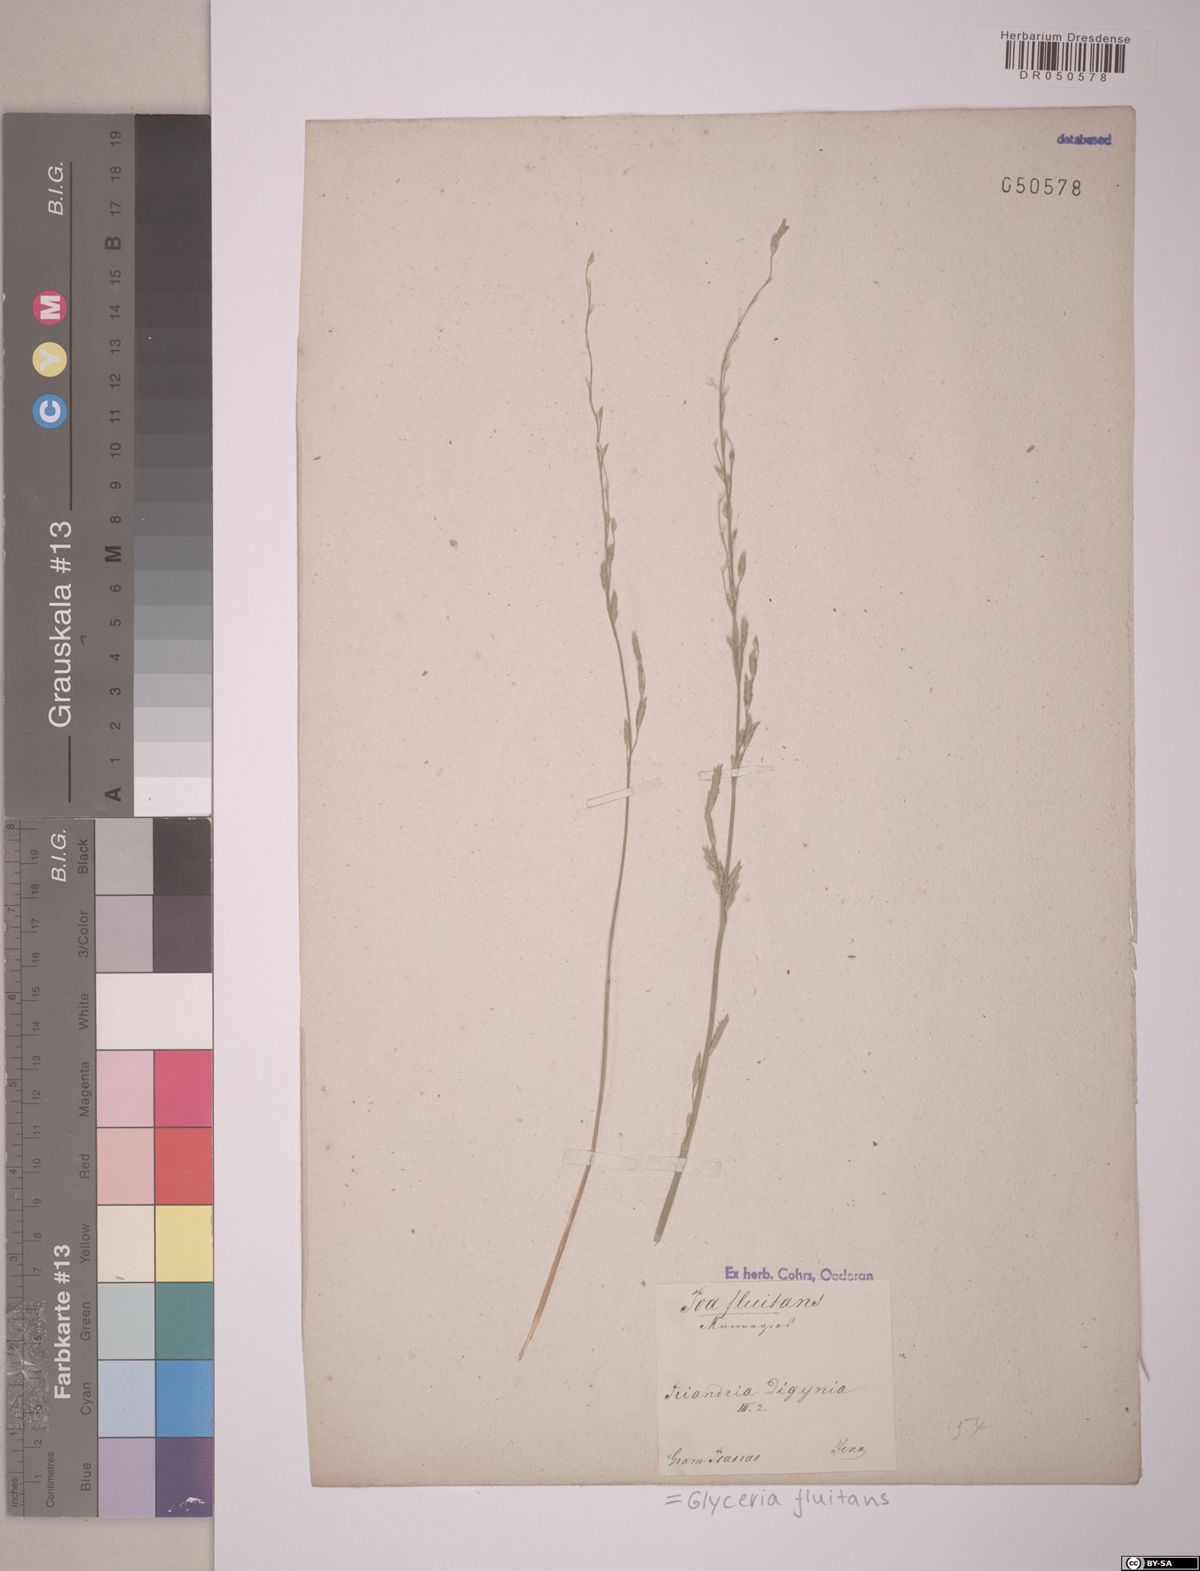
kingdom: Plantae
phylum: Tracheophyta
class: Liliopsida
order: Poales
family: Poaceae
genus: Glyceria
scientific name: Glyceria fluitans
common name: Floating sweet-grass
